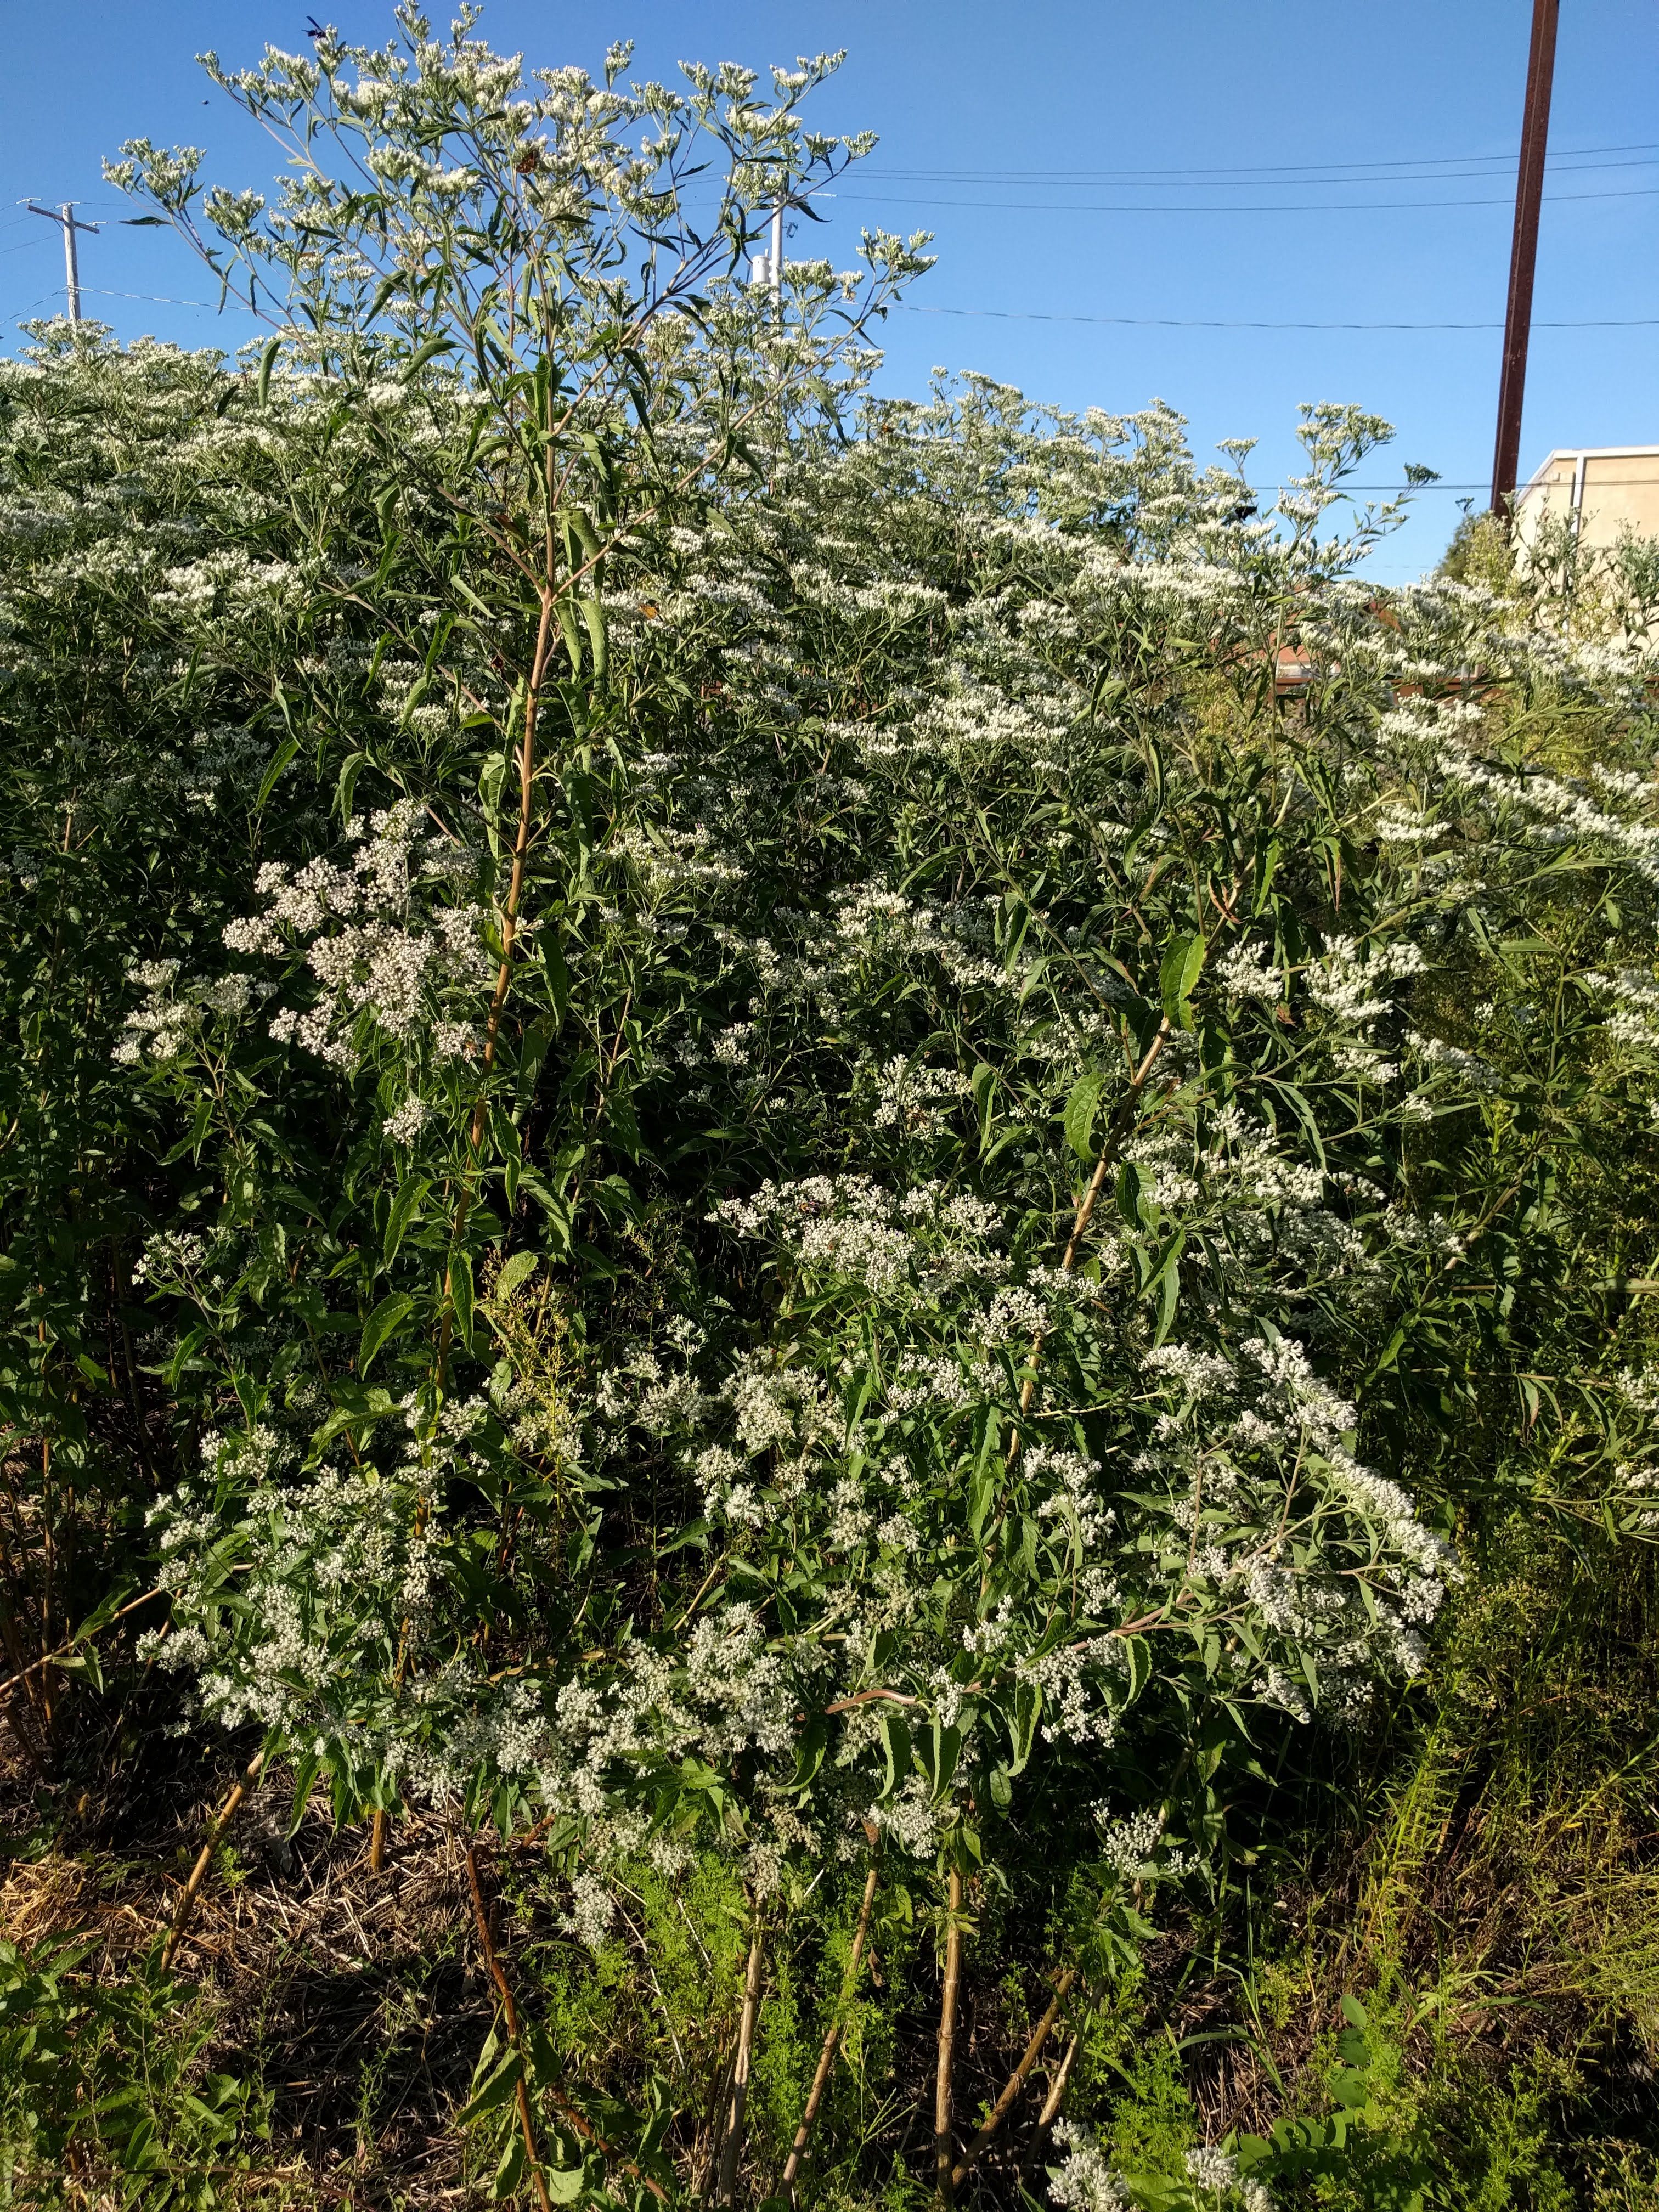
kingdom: Plantae
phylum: Tracheophyta
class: Magnoliopsida
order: Asterales
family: Asteraceae
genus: Eupatorium
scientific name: Eupatorium serotinum
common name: Late boneset
